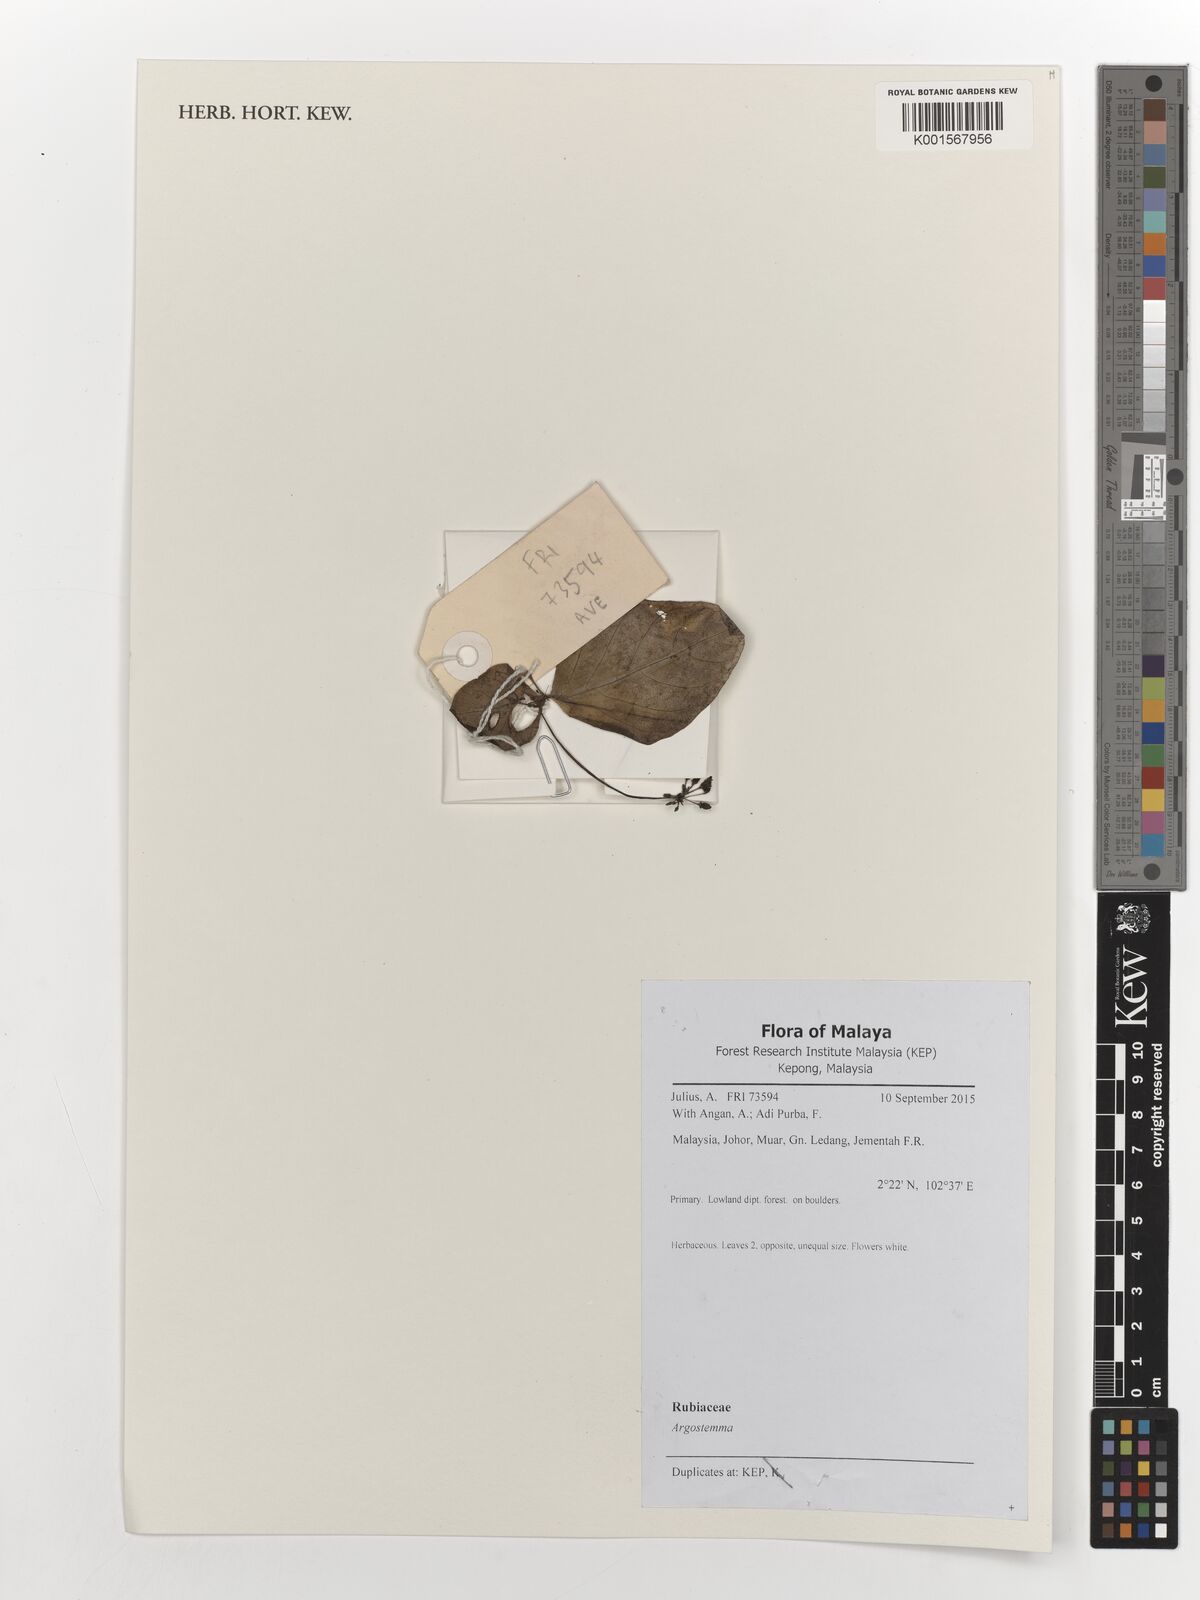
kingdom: Plantae
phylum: Tracheophyta
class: Magnoliopsida
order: Gentianales
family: Rubiaceae
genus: Argostemma
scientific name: Argostemma
